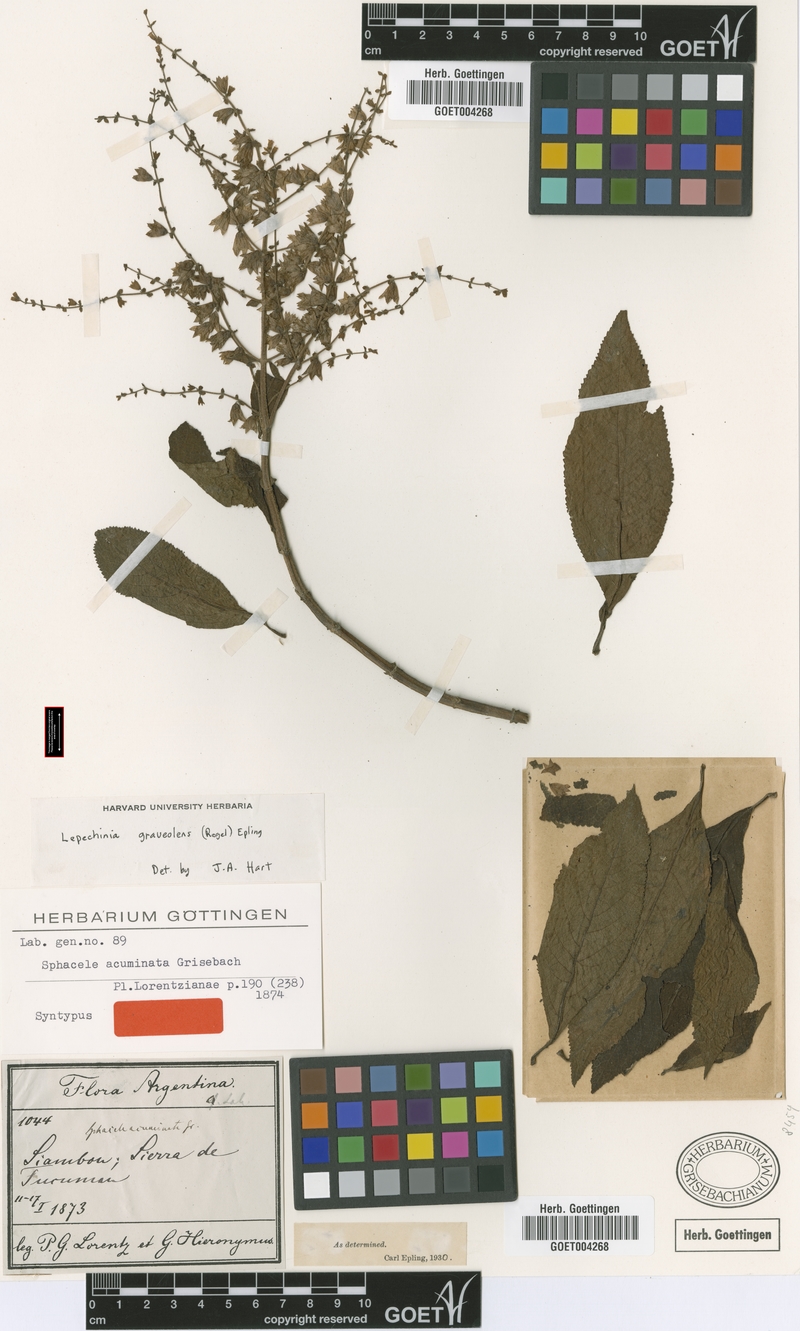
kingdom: Plantae
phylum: Tracheophyta
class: Magnoliopsida
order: Lamiales
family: Lamiaceae
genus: Lepechinia
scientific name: Lepechinia graveolens
